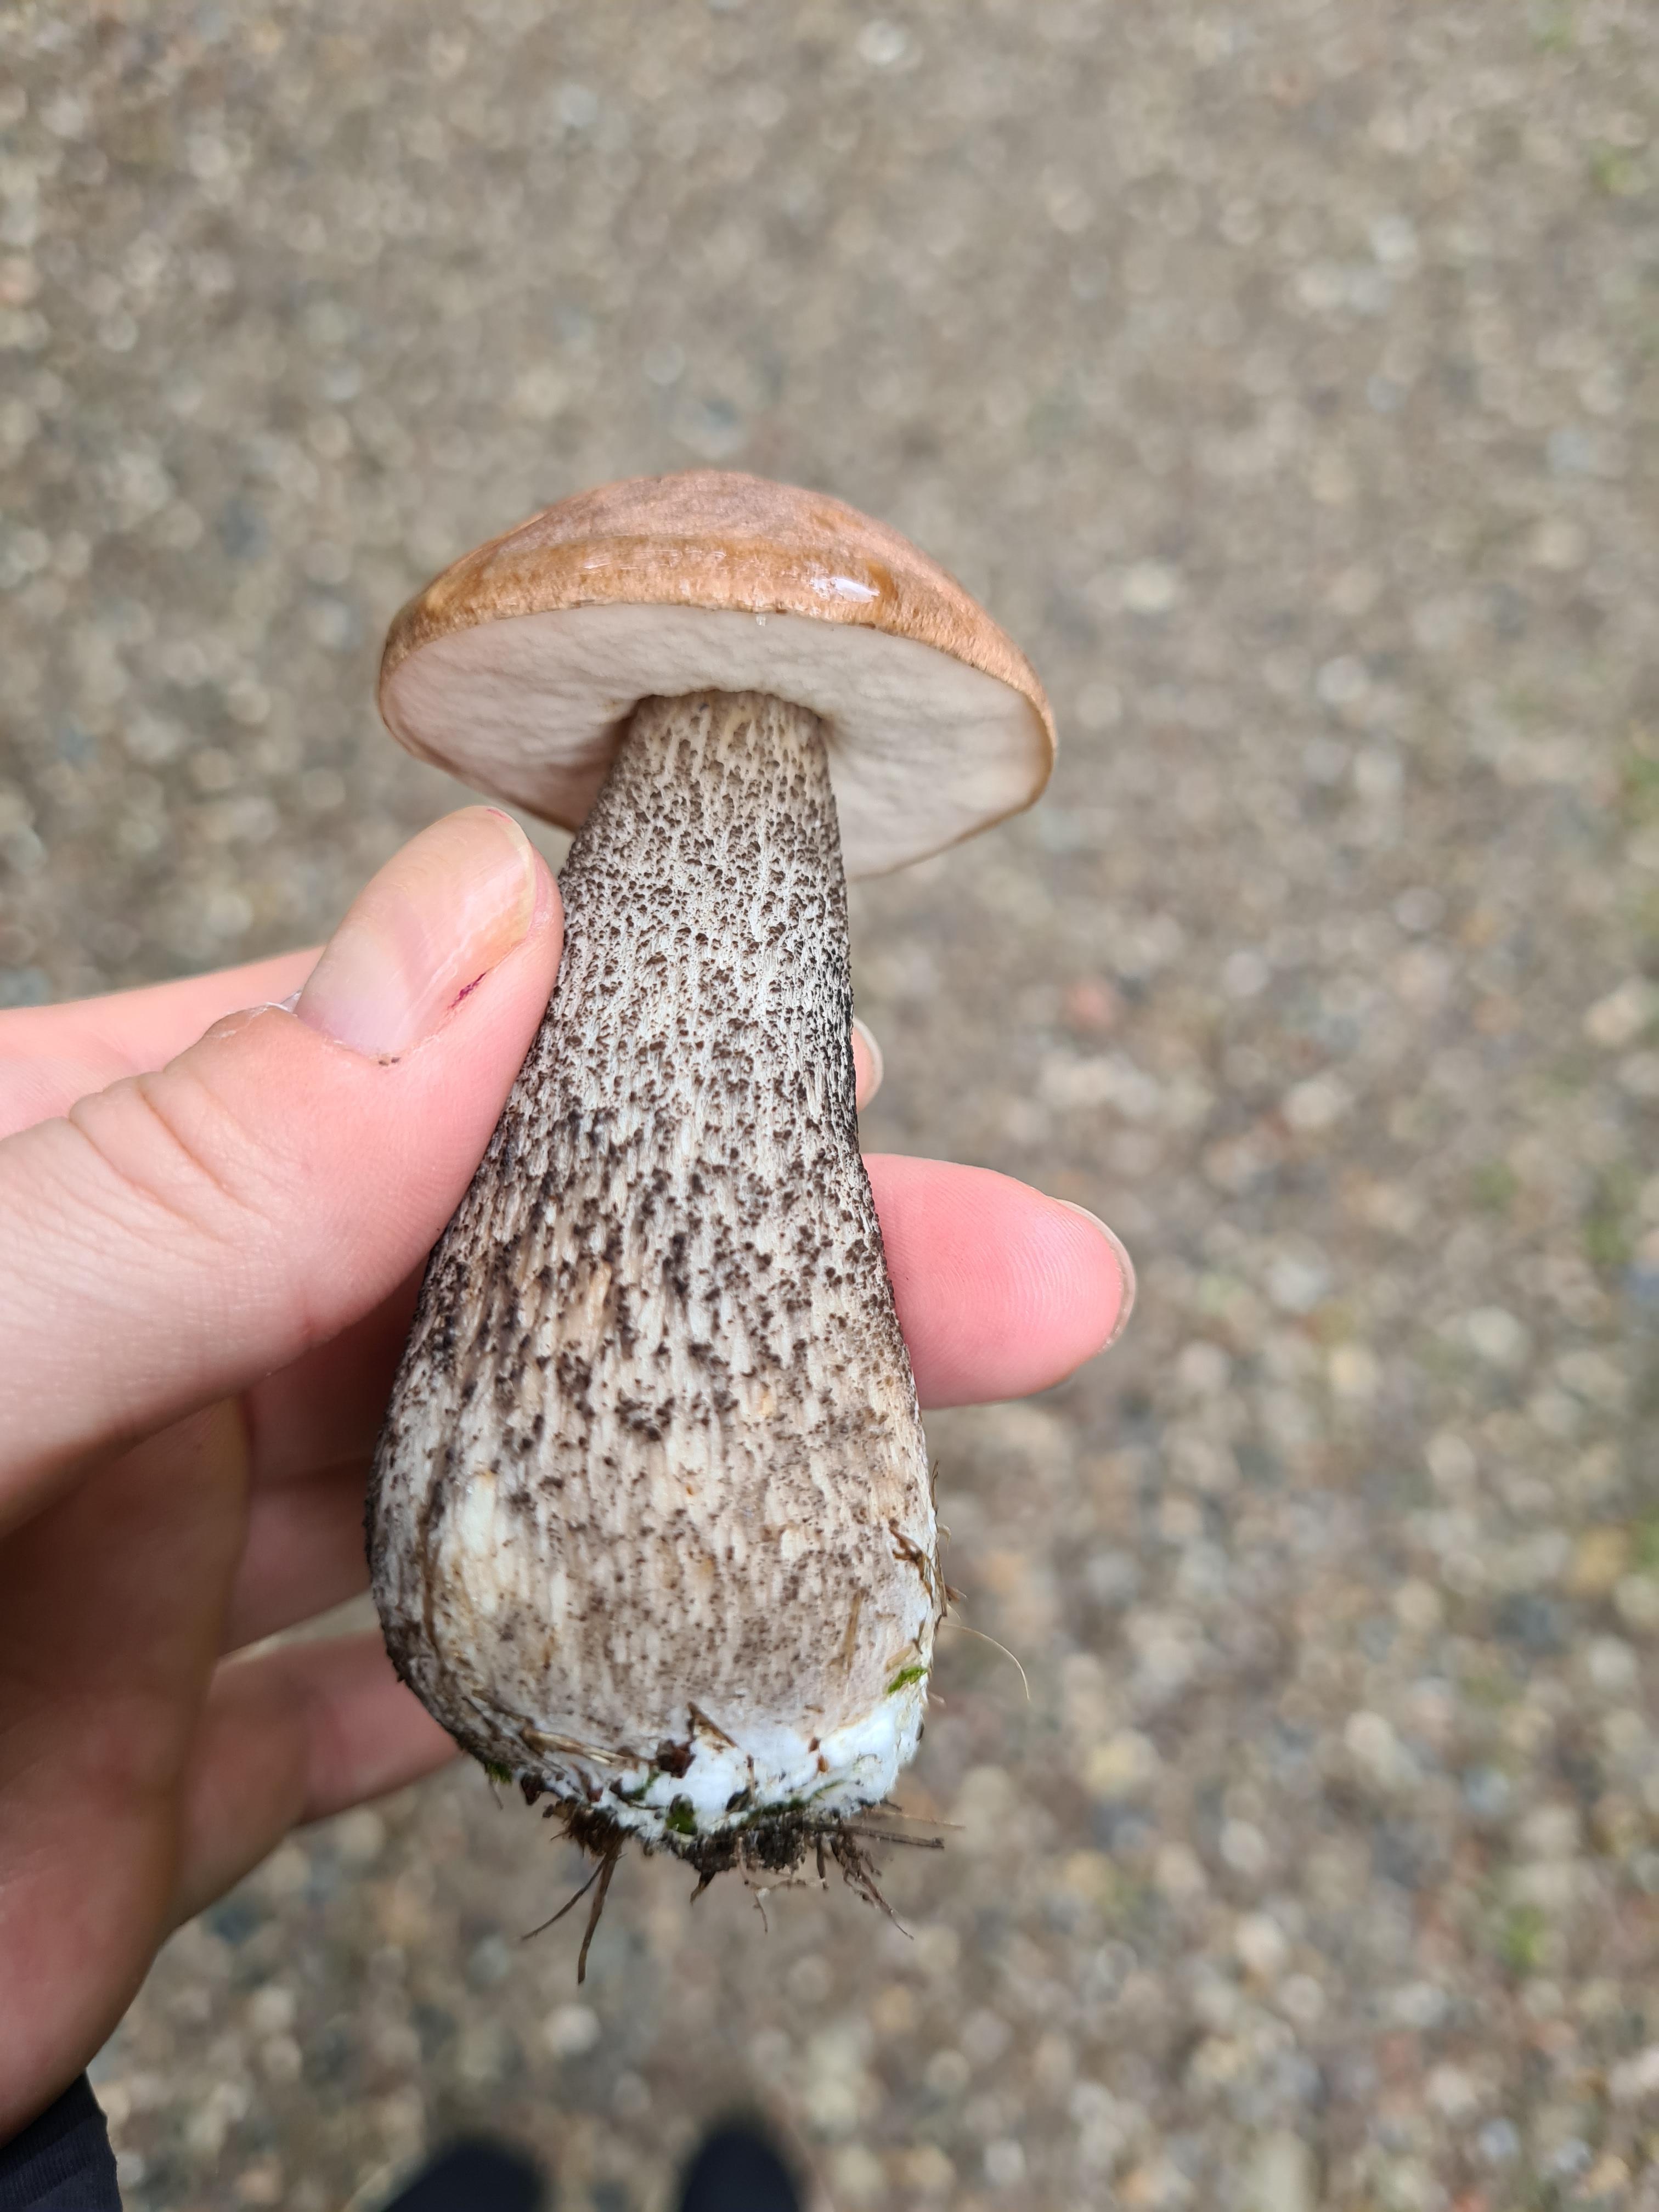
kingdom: Fungi
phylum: Basidiomycota
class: Agaricomycetes
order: Boletales
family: Boletaceae
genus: Leccinum
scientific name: Leccinum scabrum
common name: brun skælrørhat
